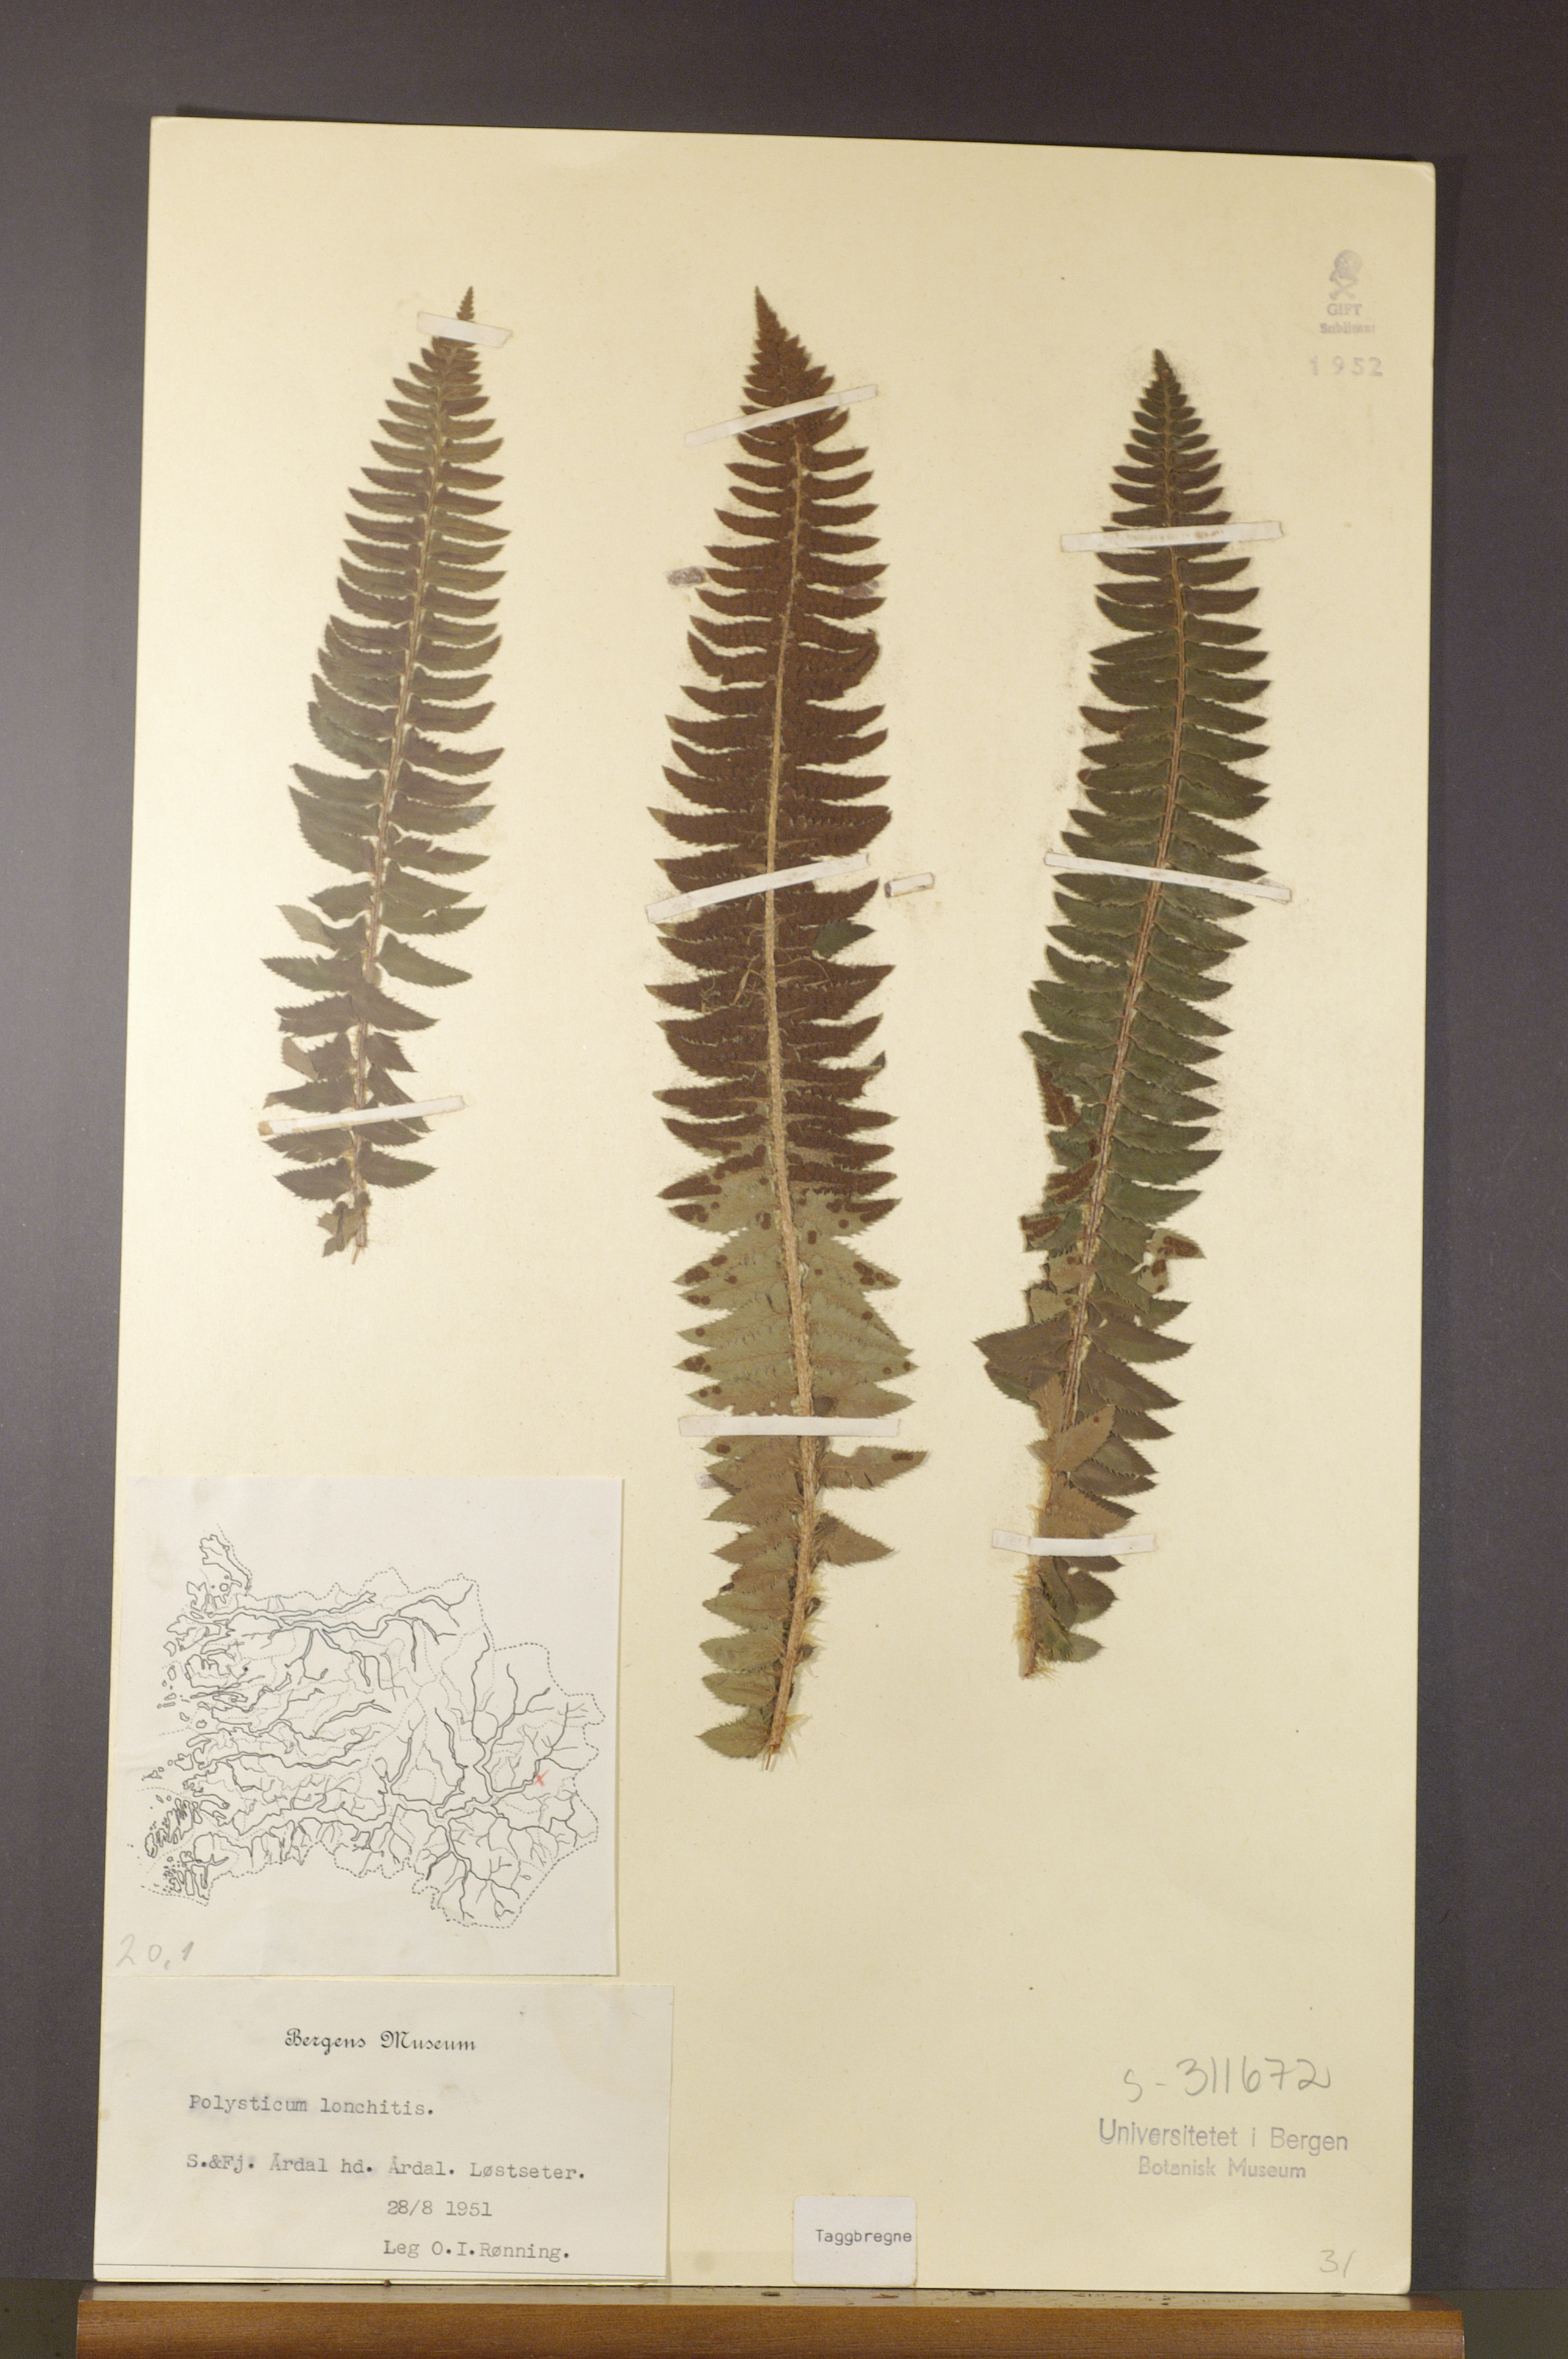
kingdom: Plantae
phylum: Tracheophyta
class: Polypodiopsida
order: Polypodiales
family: Dryopteridaceae
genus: Polystichum
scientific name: Polystichum lonchitis
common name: Holly fern
